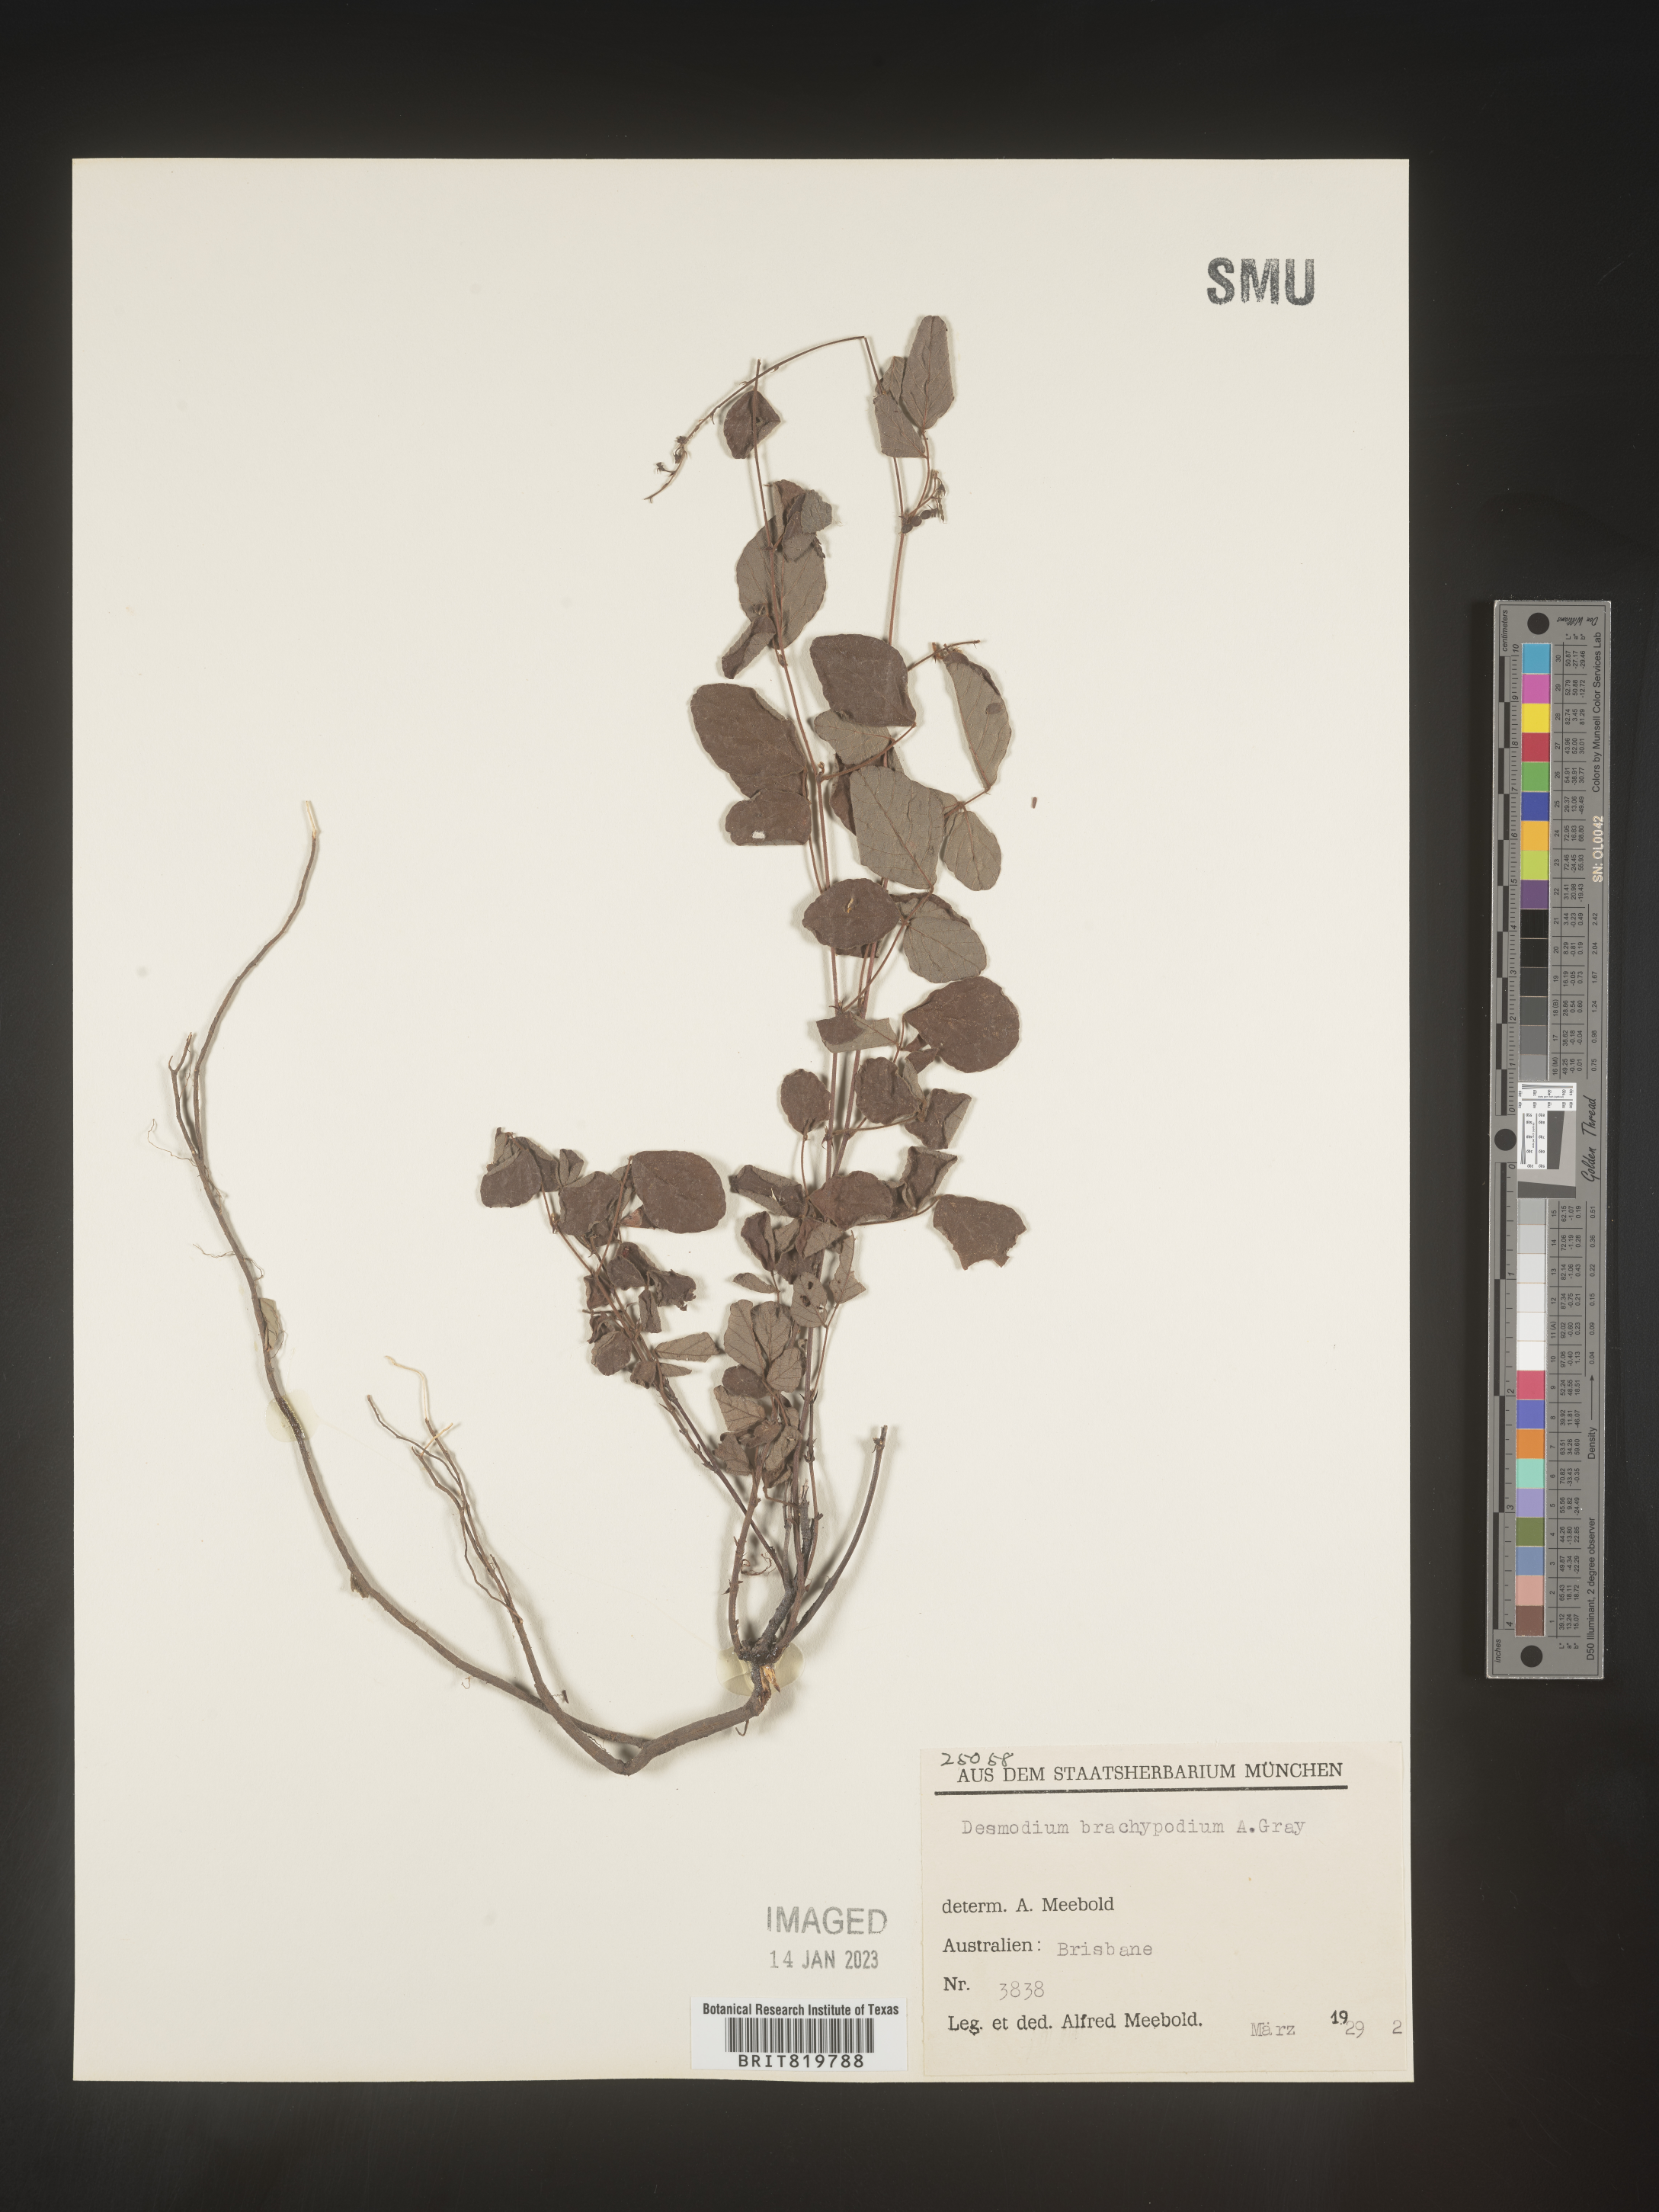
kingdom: Plantae
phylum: Tracheophyta
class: Magnoliopsida
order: Fabales
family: Fabaceae
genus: Desmodium
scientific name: Desmodium
